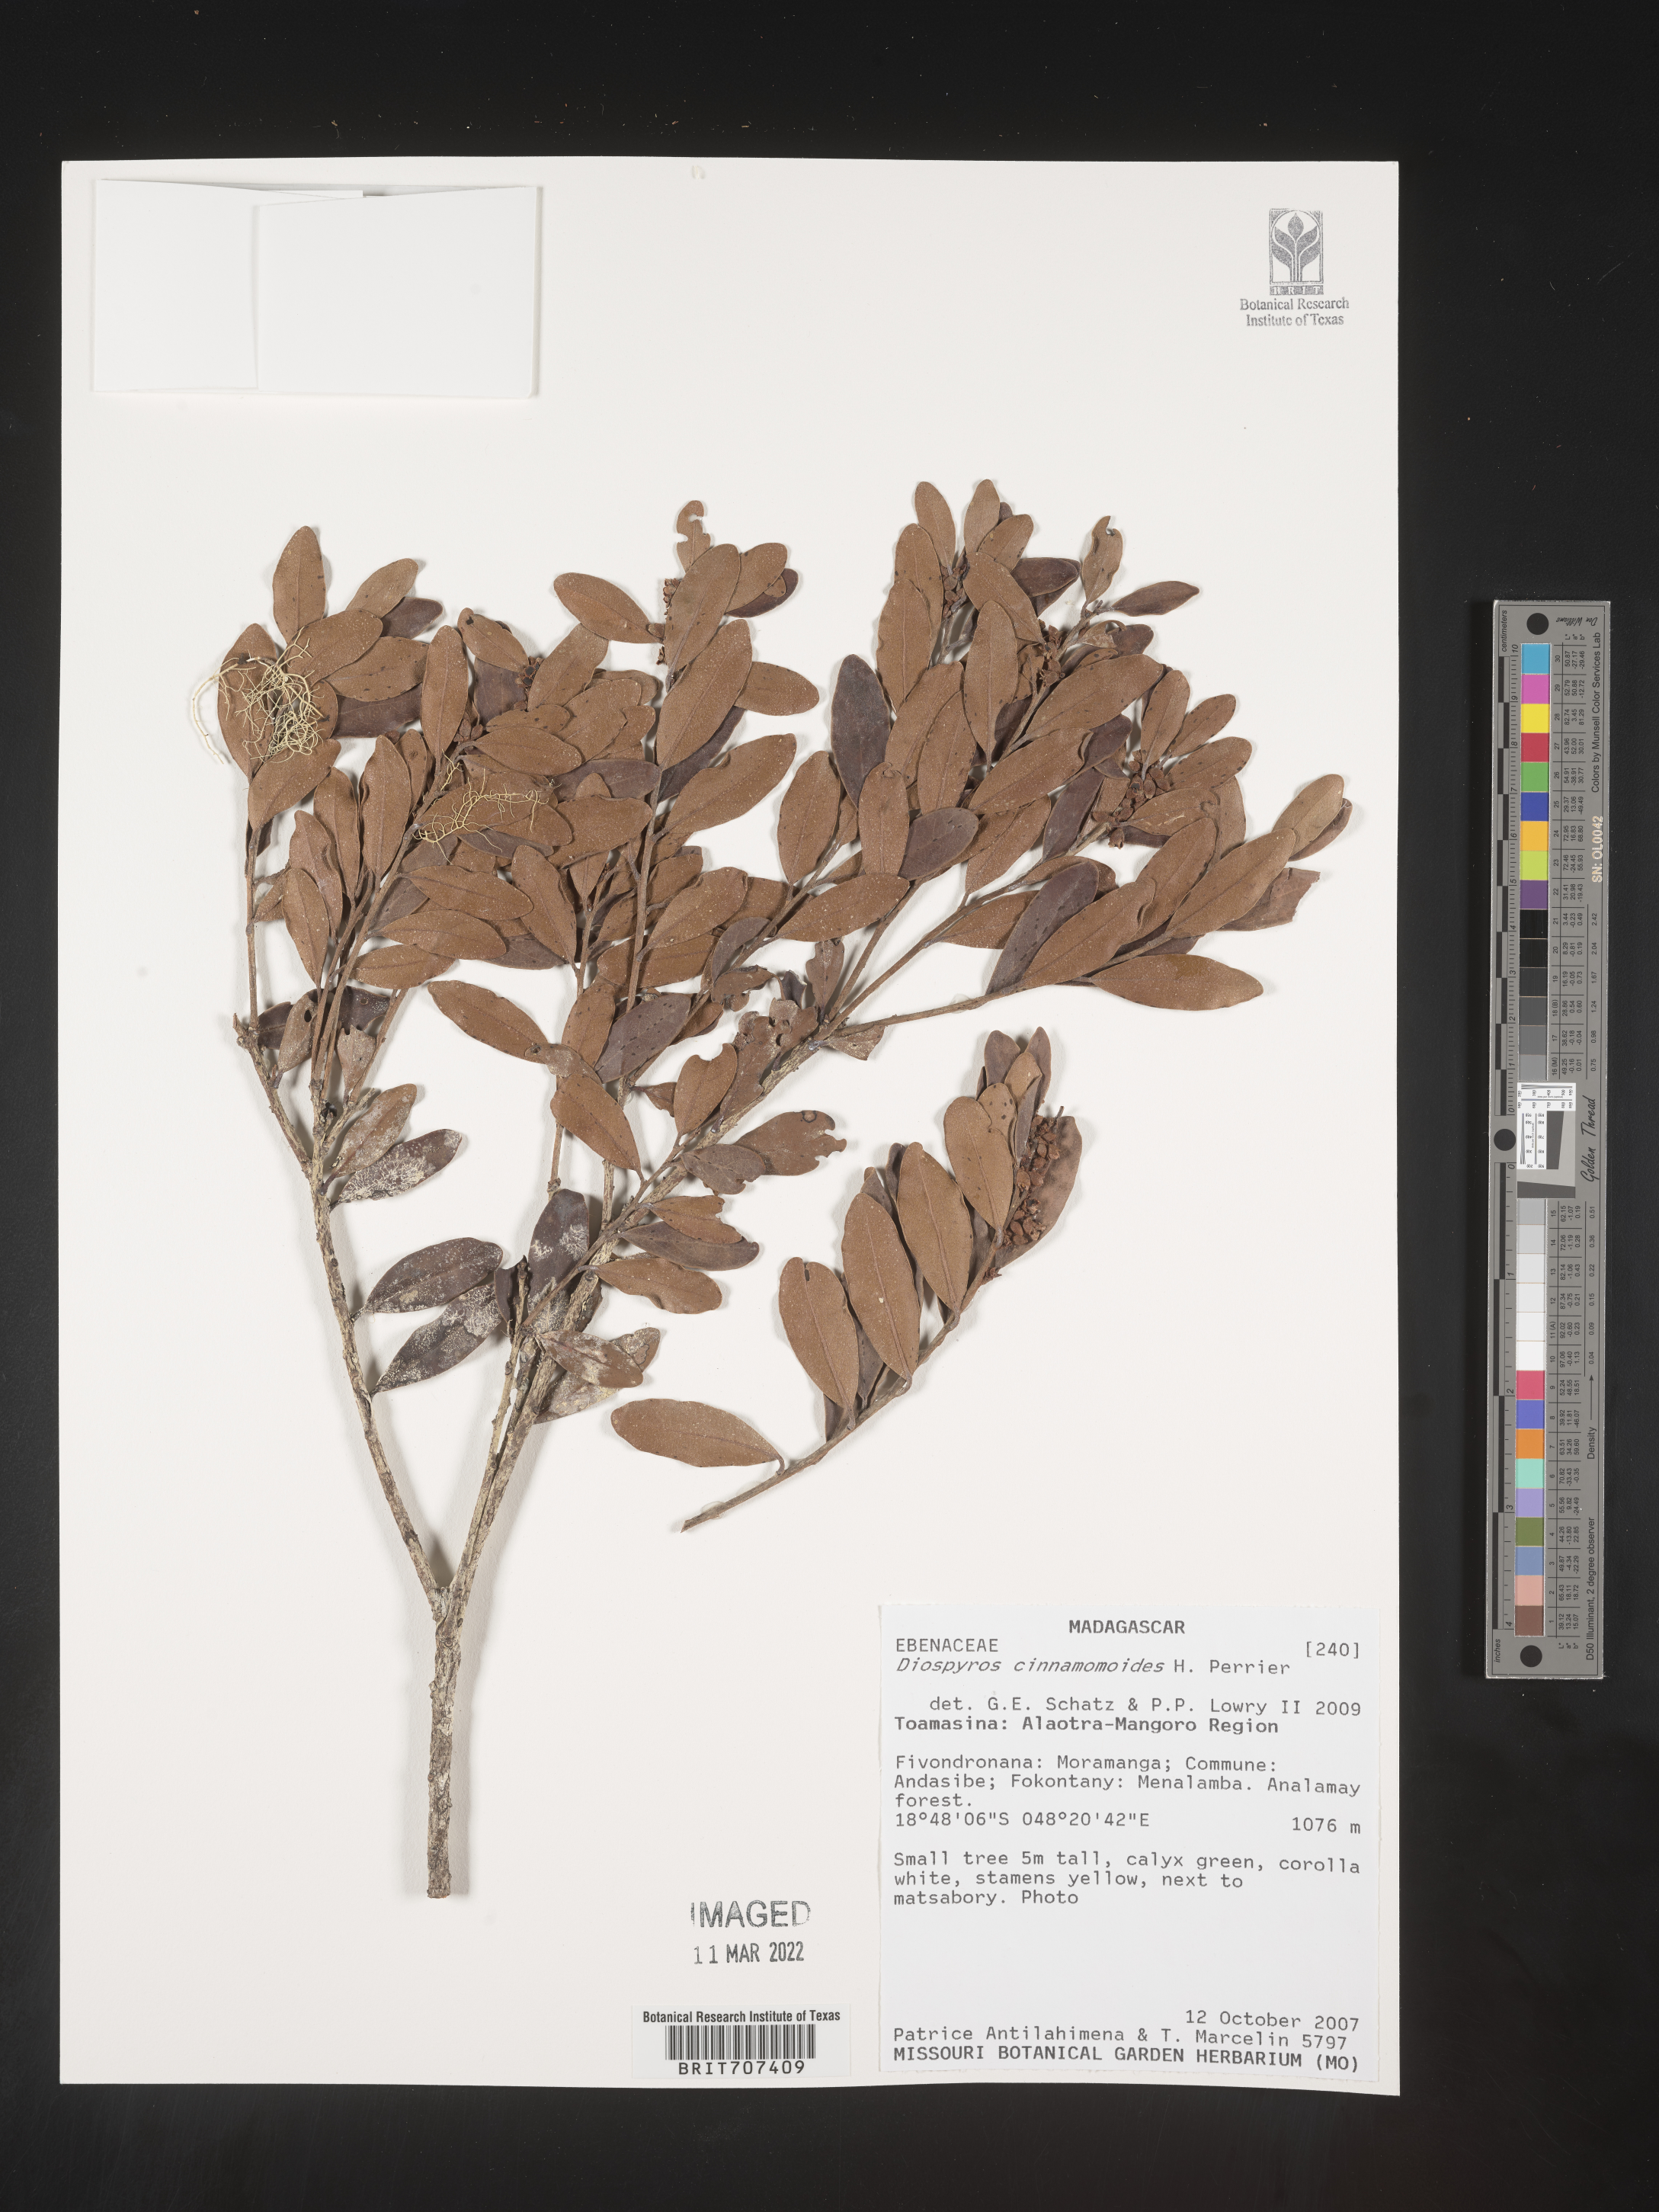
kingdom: Plantae
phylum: Tracheophyta
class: Magnoliopsida
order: Ericales
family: Ebenaceae
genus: Diospyros
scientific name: Diospyros
